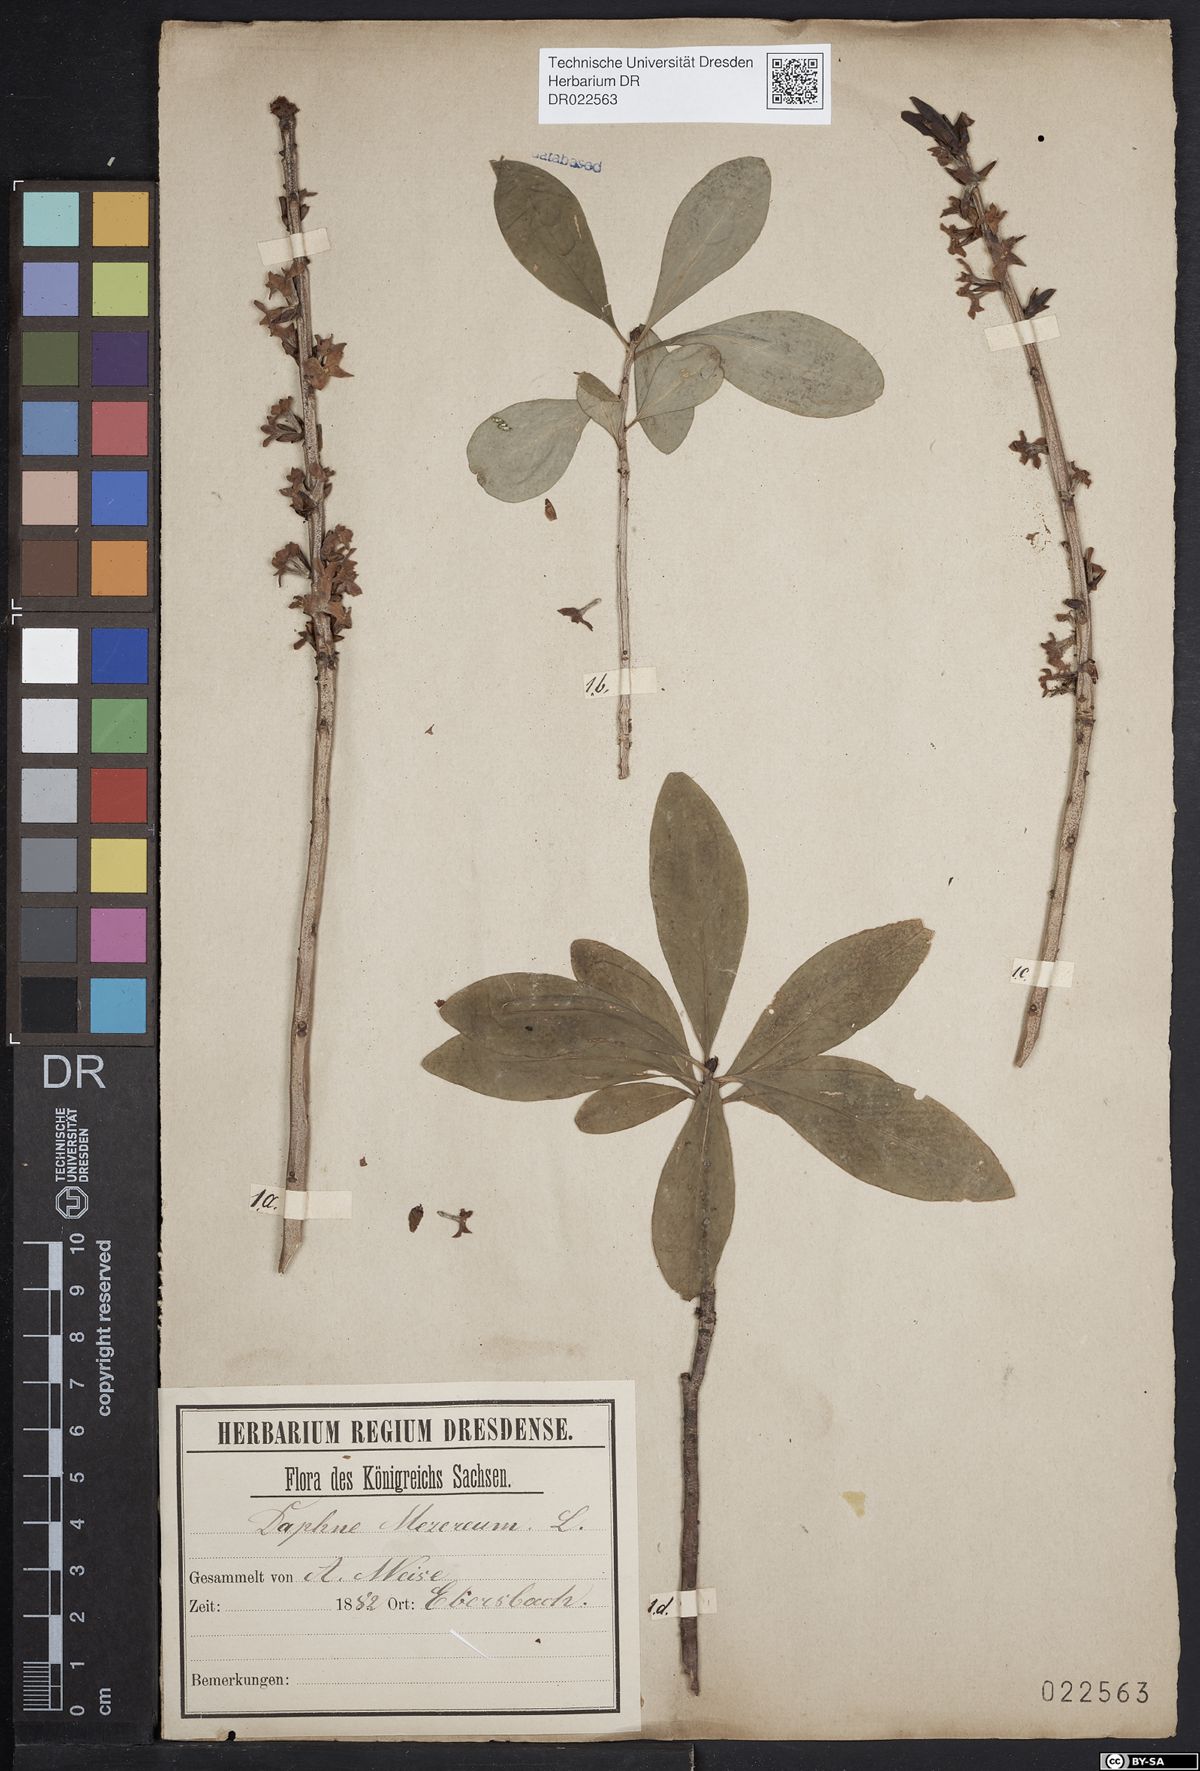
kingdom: Plantae
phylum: Tracheophyta
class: Magnoliopsida
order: Malvales
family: Thymelaeaceae
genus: Daphne
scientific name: Daphne mezereum
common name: Mezereon
